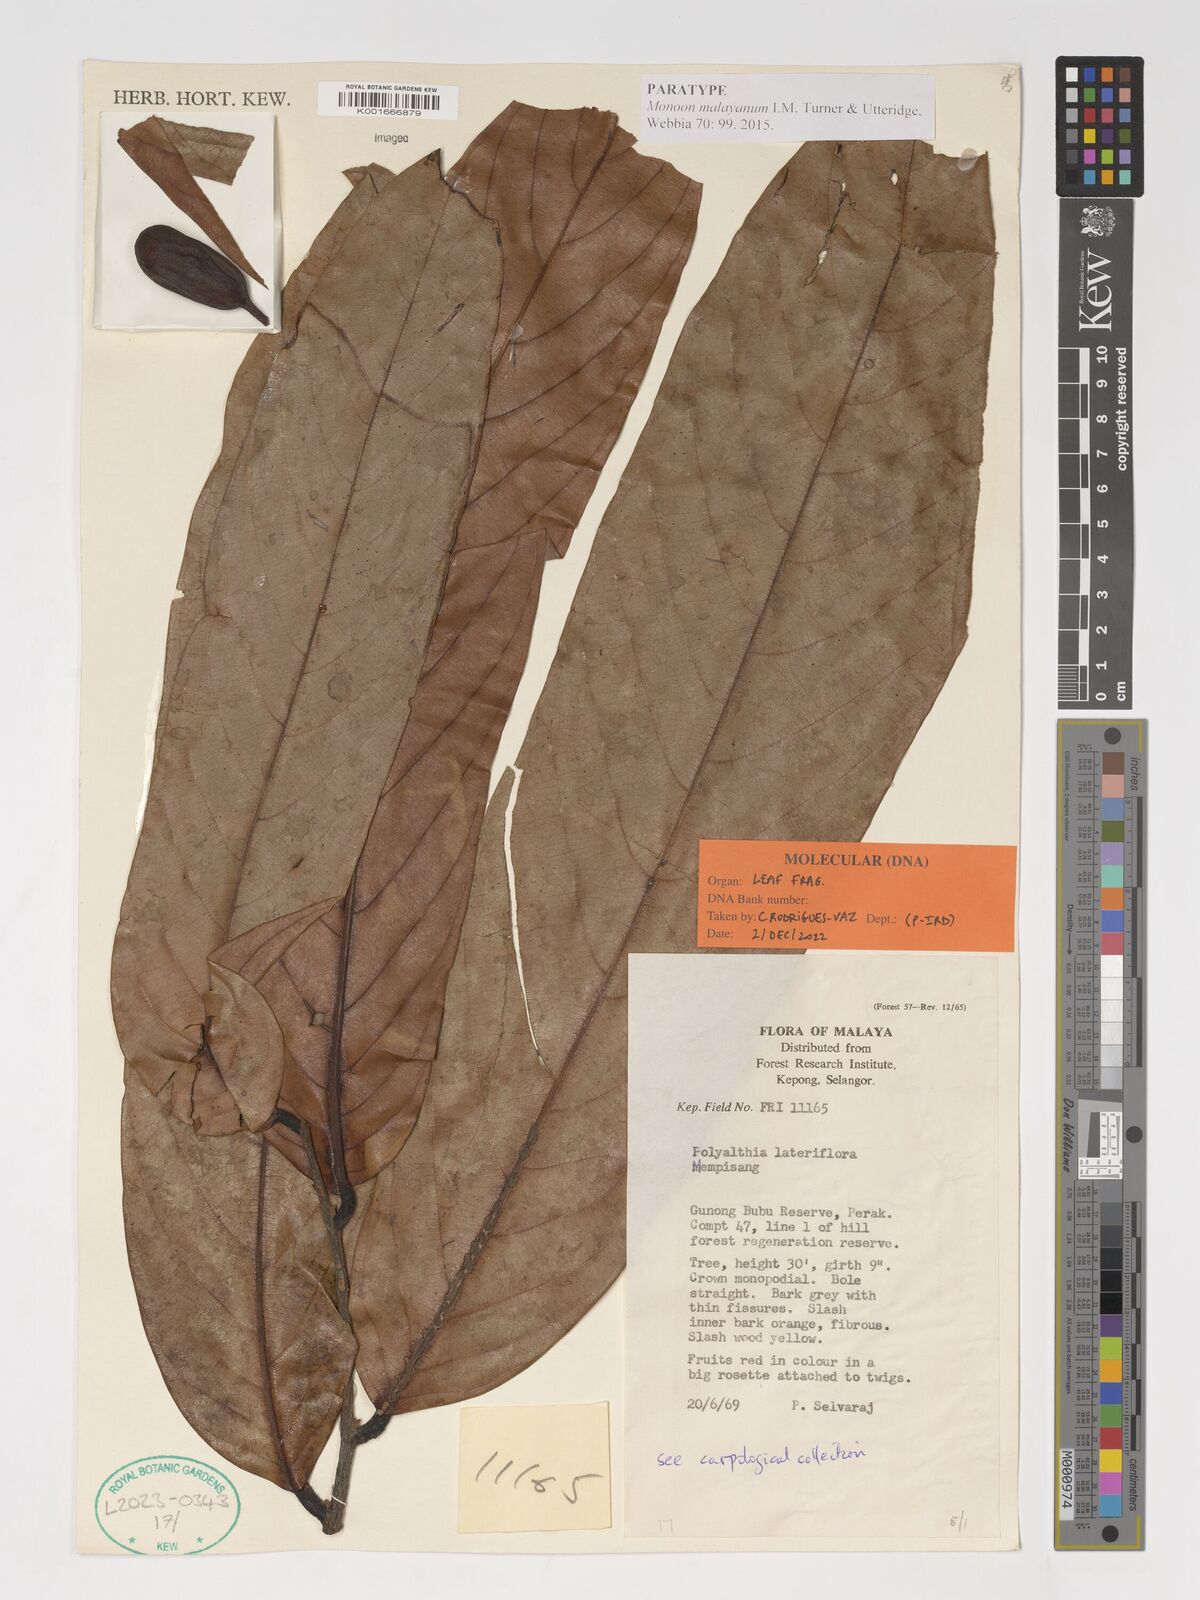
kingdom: Plantae
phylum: Tracheophyta
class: Magnoliopsida
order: Magnoliales
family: Annonaceae
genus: Polyalthia
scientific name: Polyalthia lateriflora
